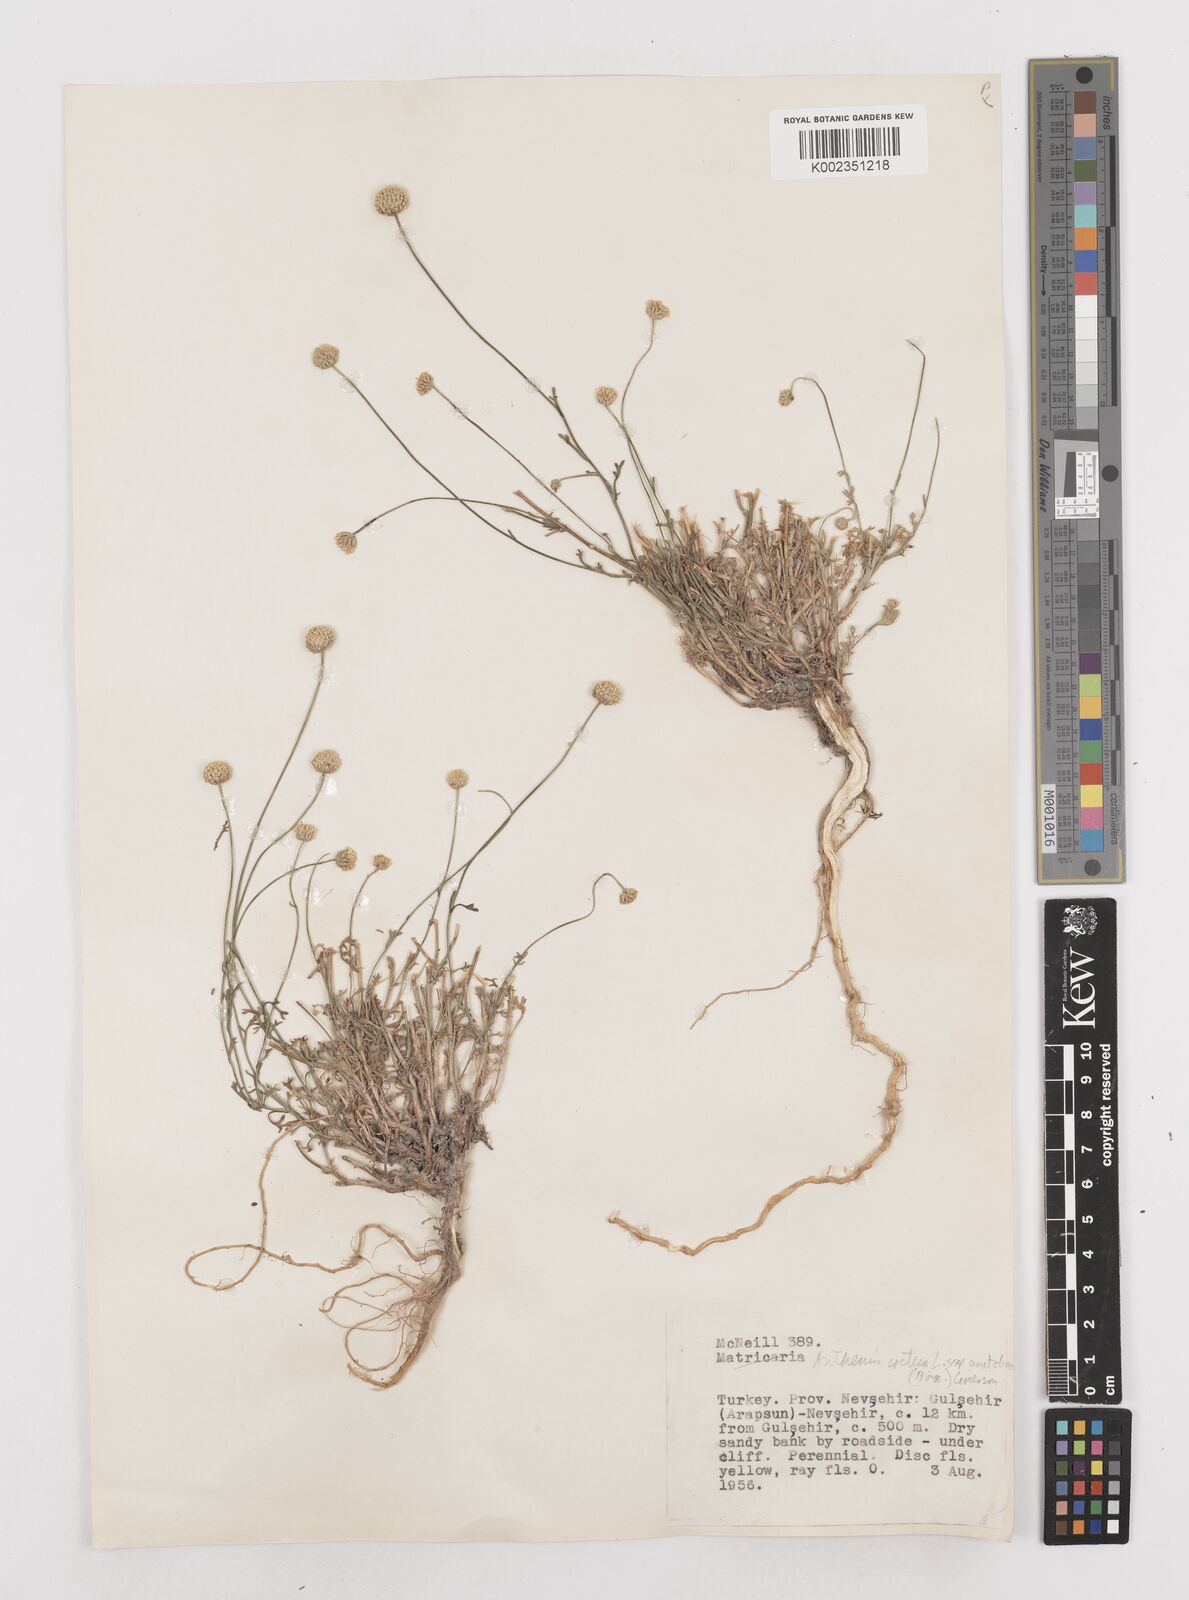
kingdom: Plantae
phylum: Tracheophyta
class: Magnoliopsida
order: Asterales
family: Asteraceae
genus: Anthemis
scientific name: Anthemis cretica
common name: Mountain dog-daisy
